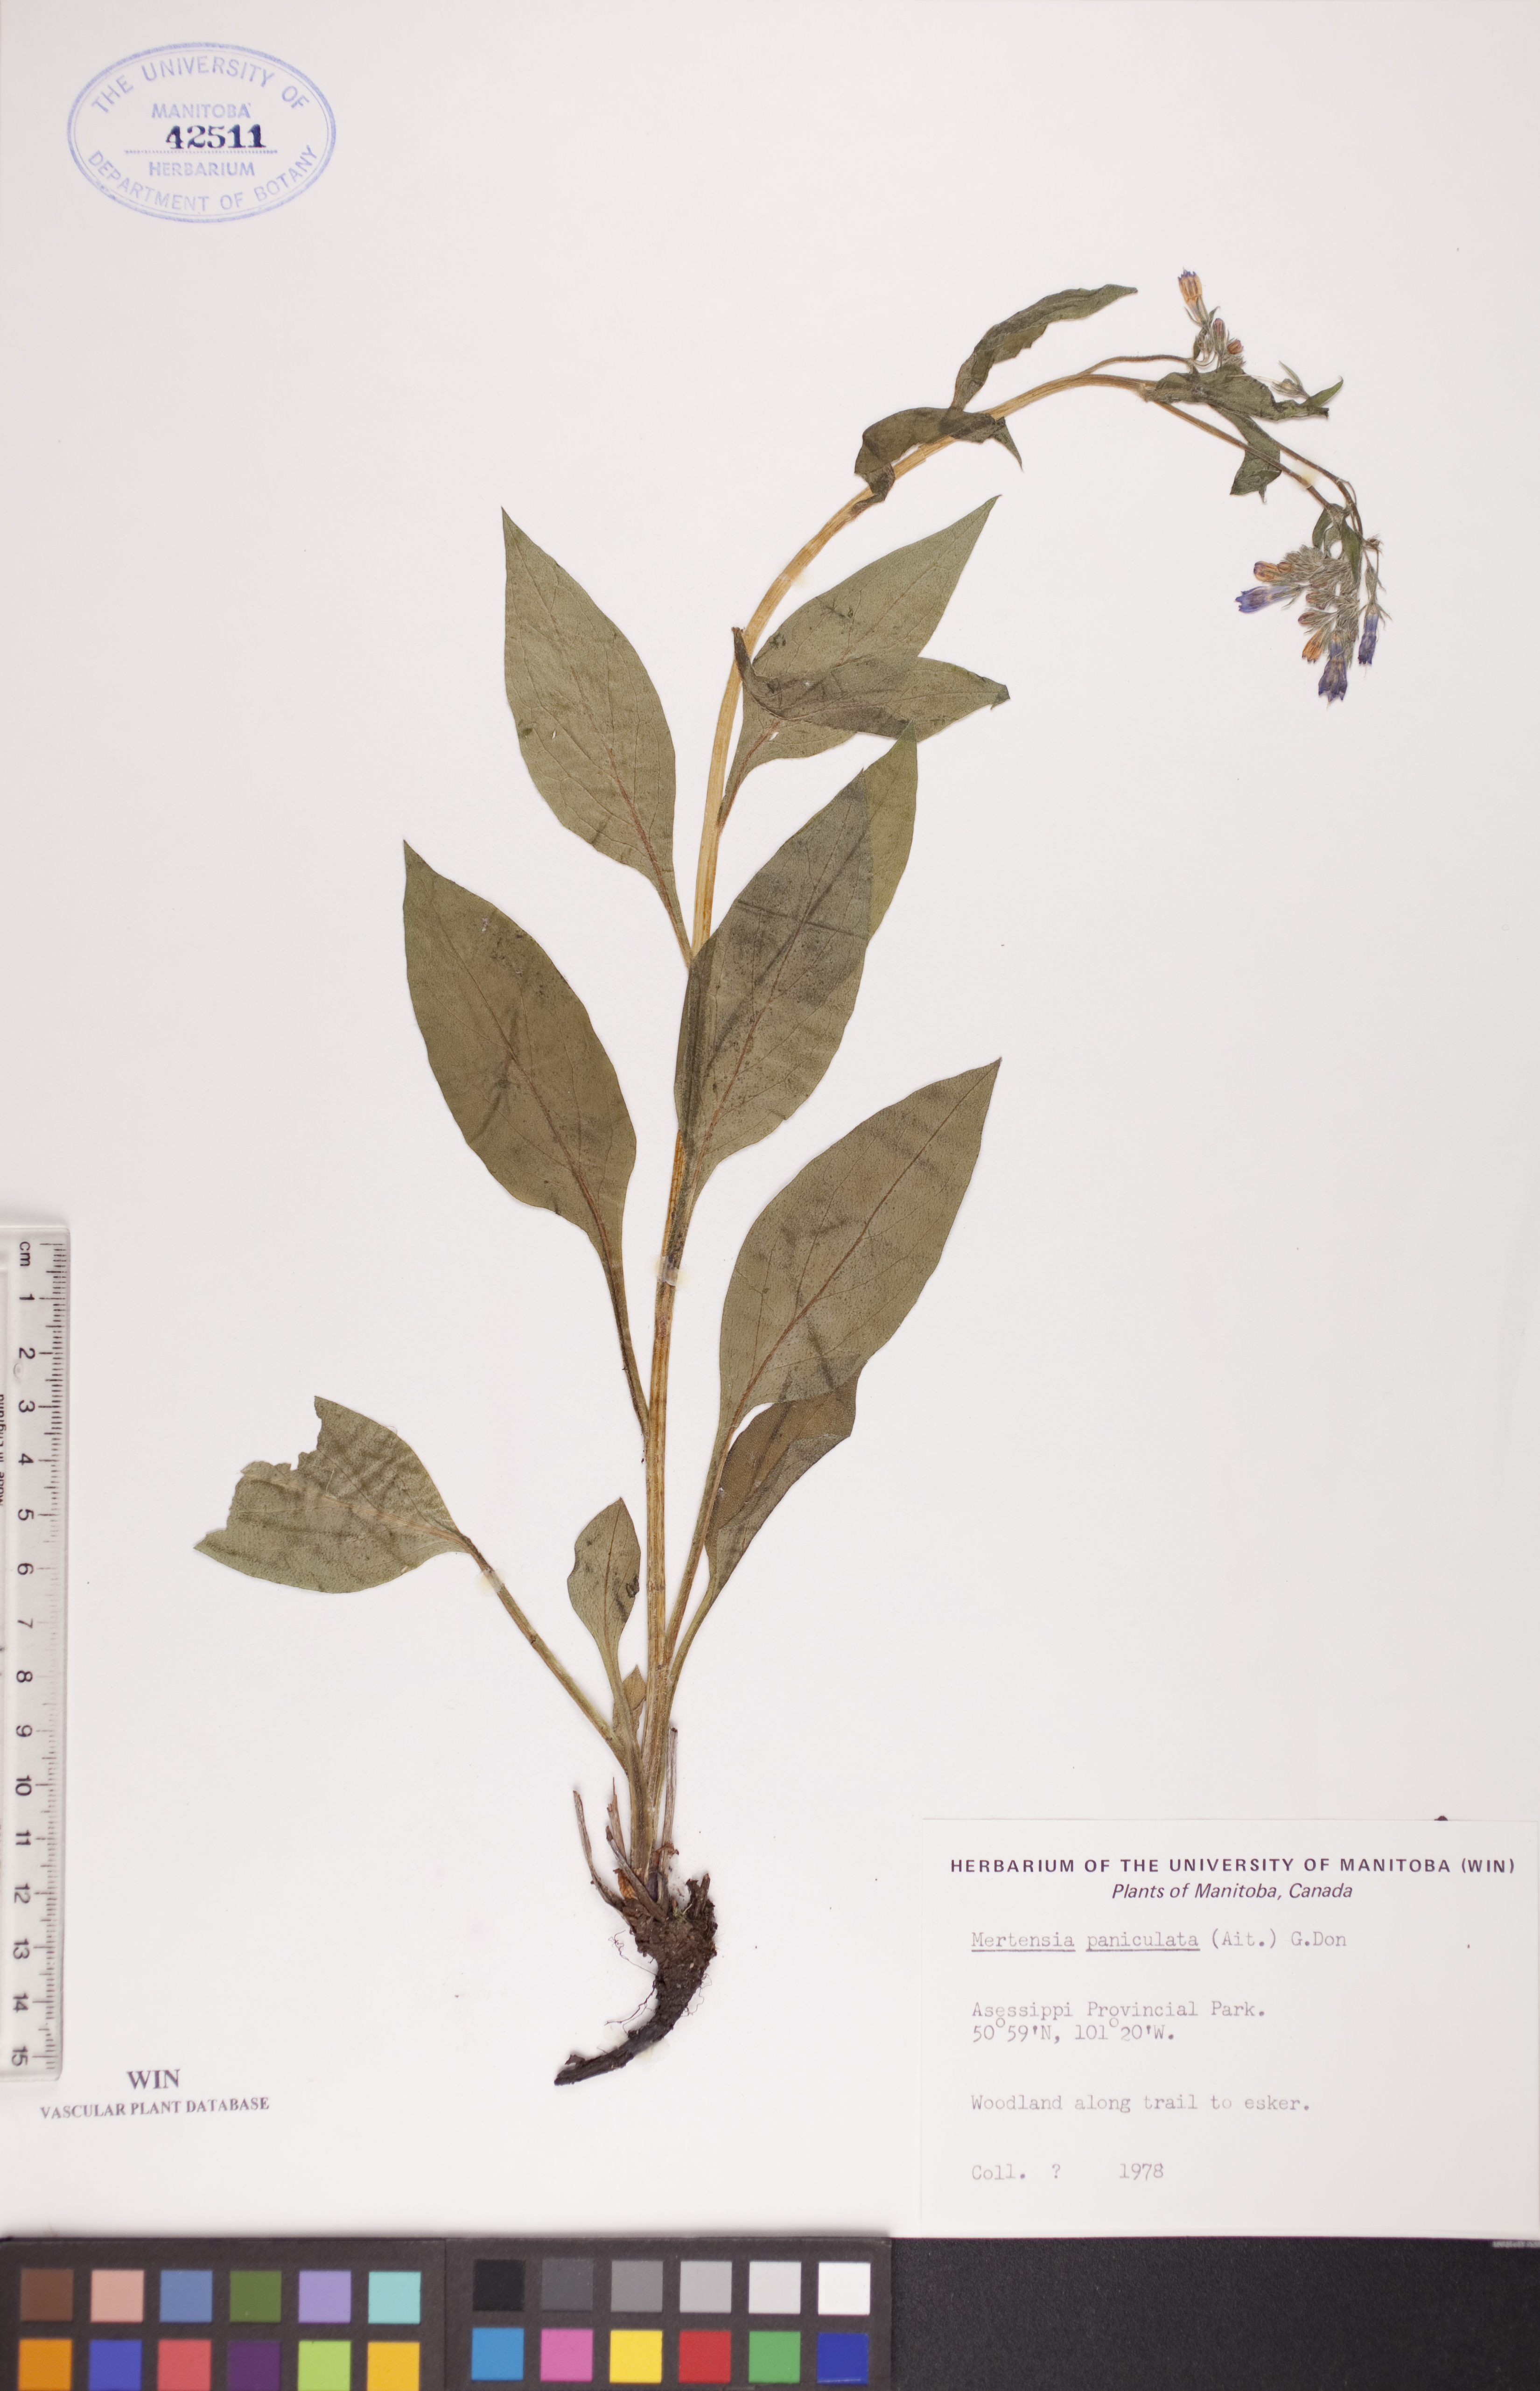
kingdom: Plantae
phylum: Tracheophyta
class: Magnoliopsida
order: Boraginales
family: Boraginaceae
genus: Mertensia
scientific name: Mertensia paniculata
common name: Panicled bluebells
